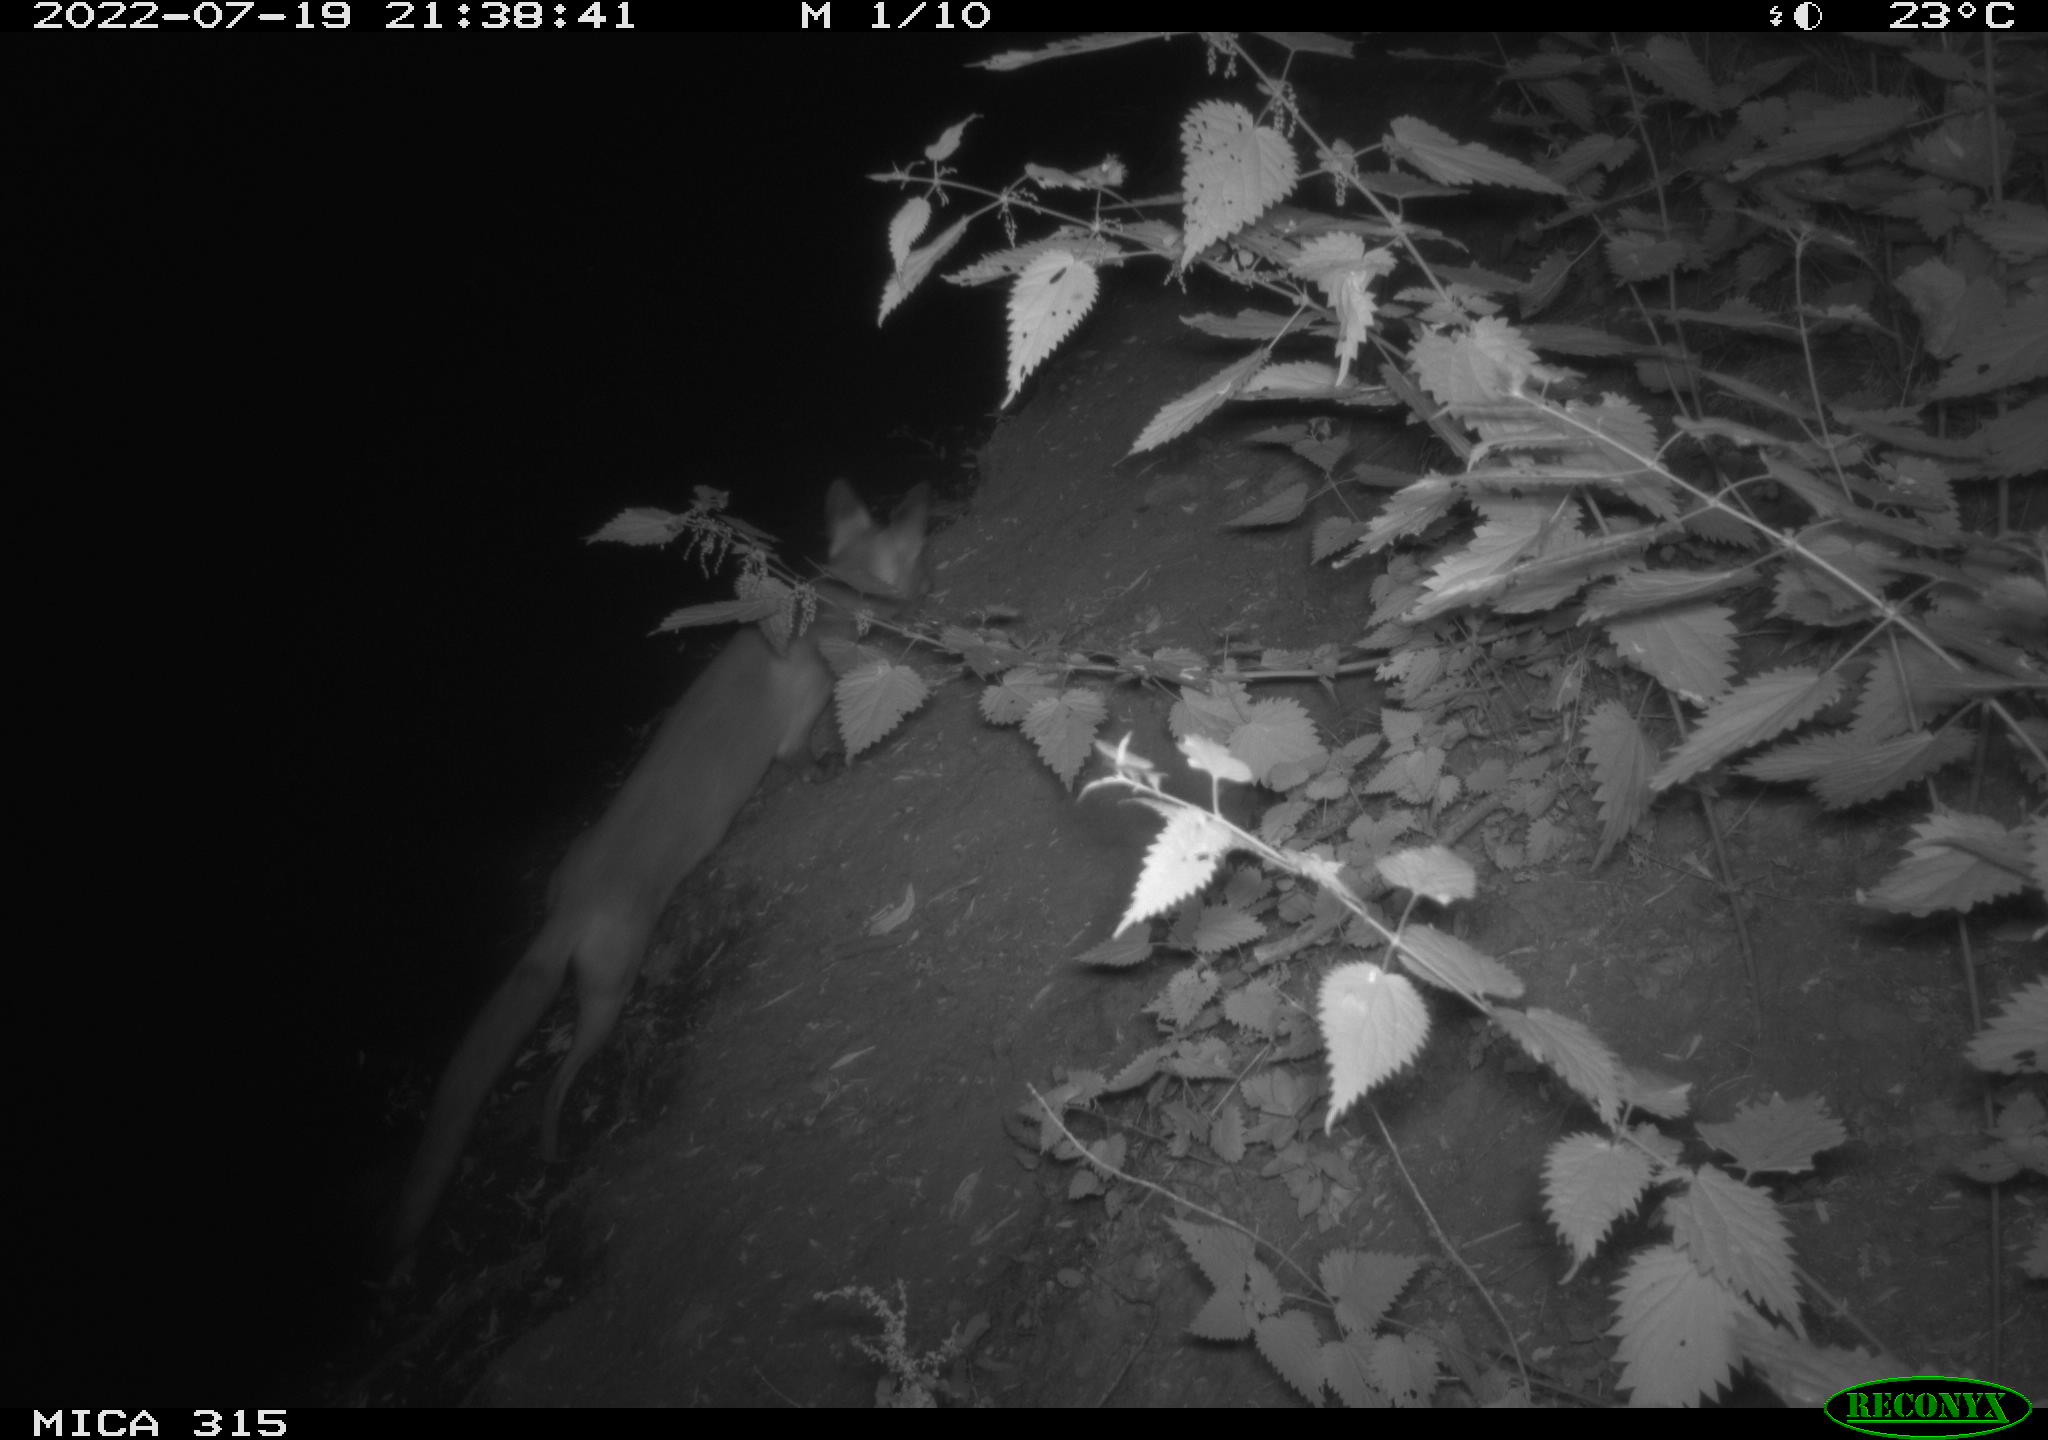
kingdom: Animalia
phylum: Chordata
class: Mammalia
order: Carnivora
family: Canidae
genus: Vulpes
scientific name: Vulpes vulpes
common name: Red fox
